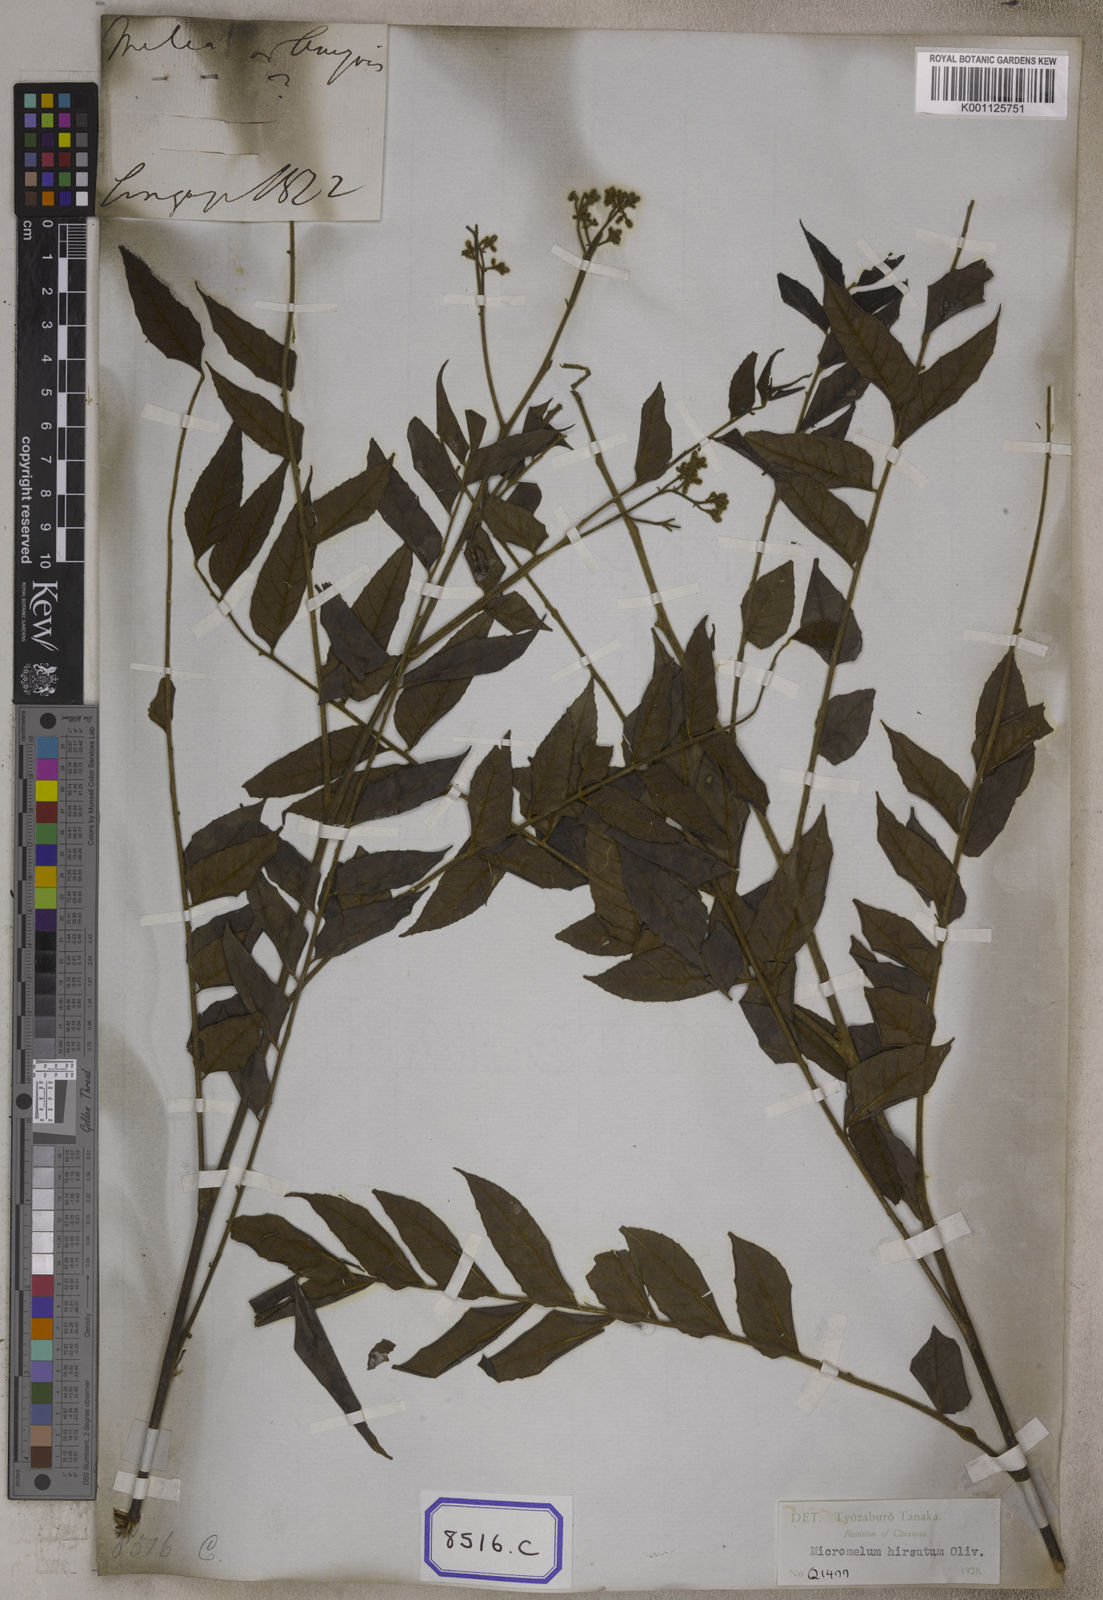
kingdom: Plantae
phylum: Tracheophyta
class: Magnoliopsida
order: Sapindales
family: Rutaceae
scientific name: Rutaceae
